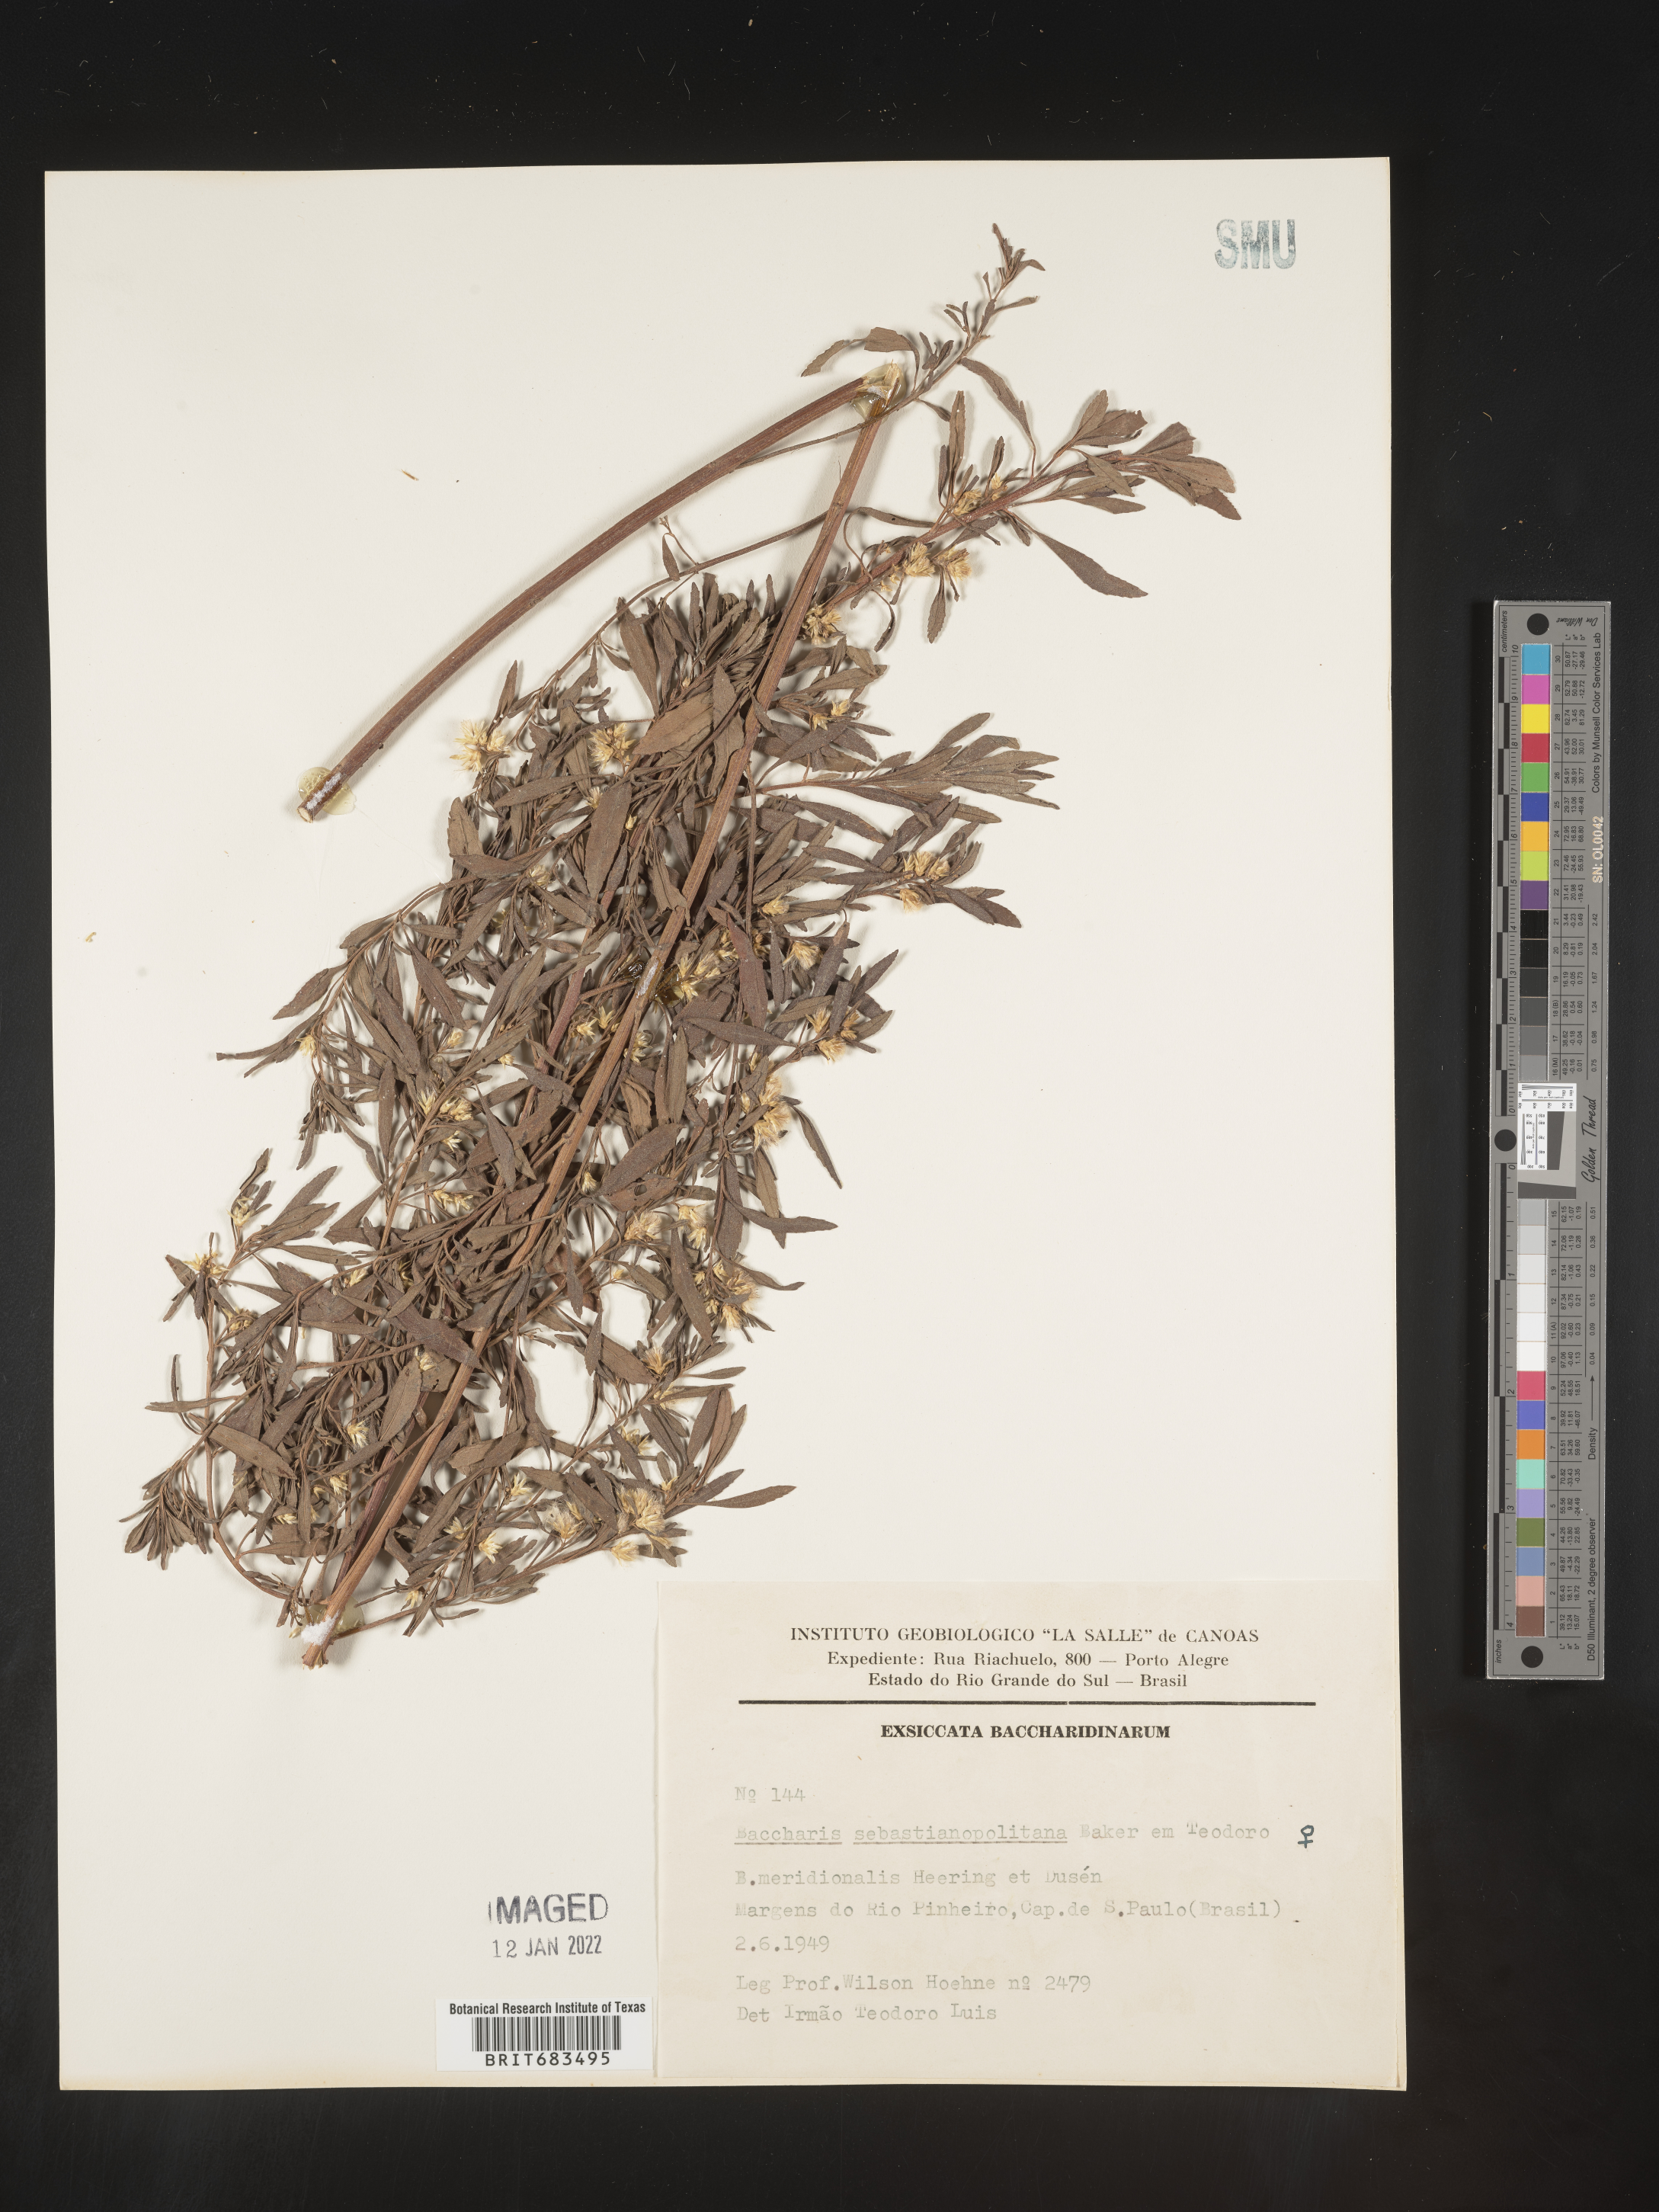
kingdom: Plantae
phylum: Tracheophyta
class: Magnoliopsida
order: Asterales
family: Asteraceae
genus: Baccharis
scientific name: Baccharis
